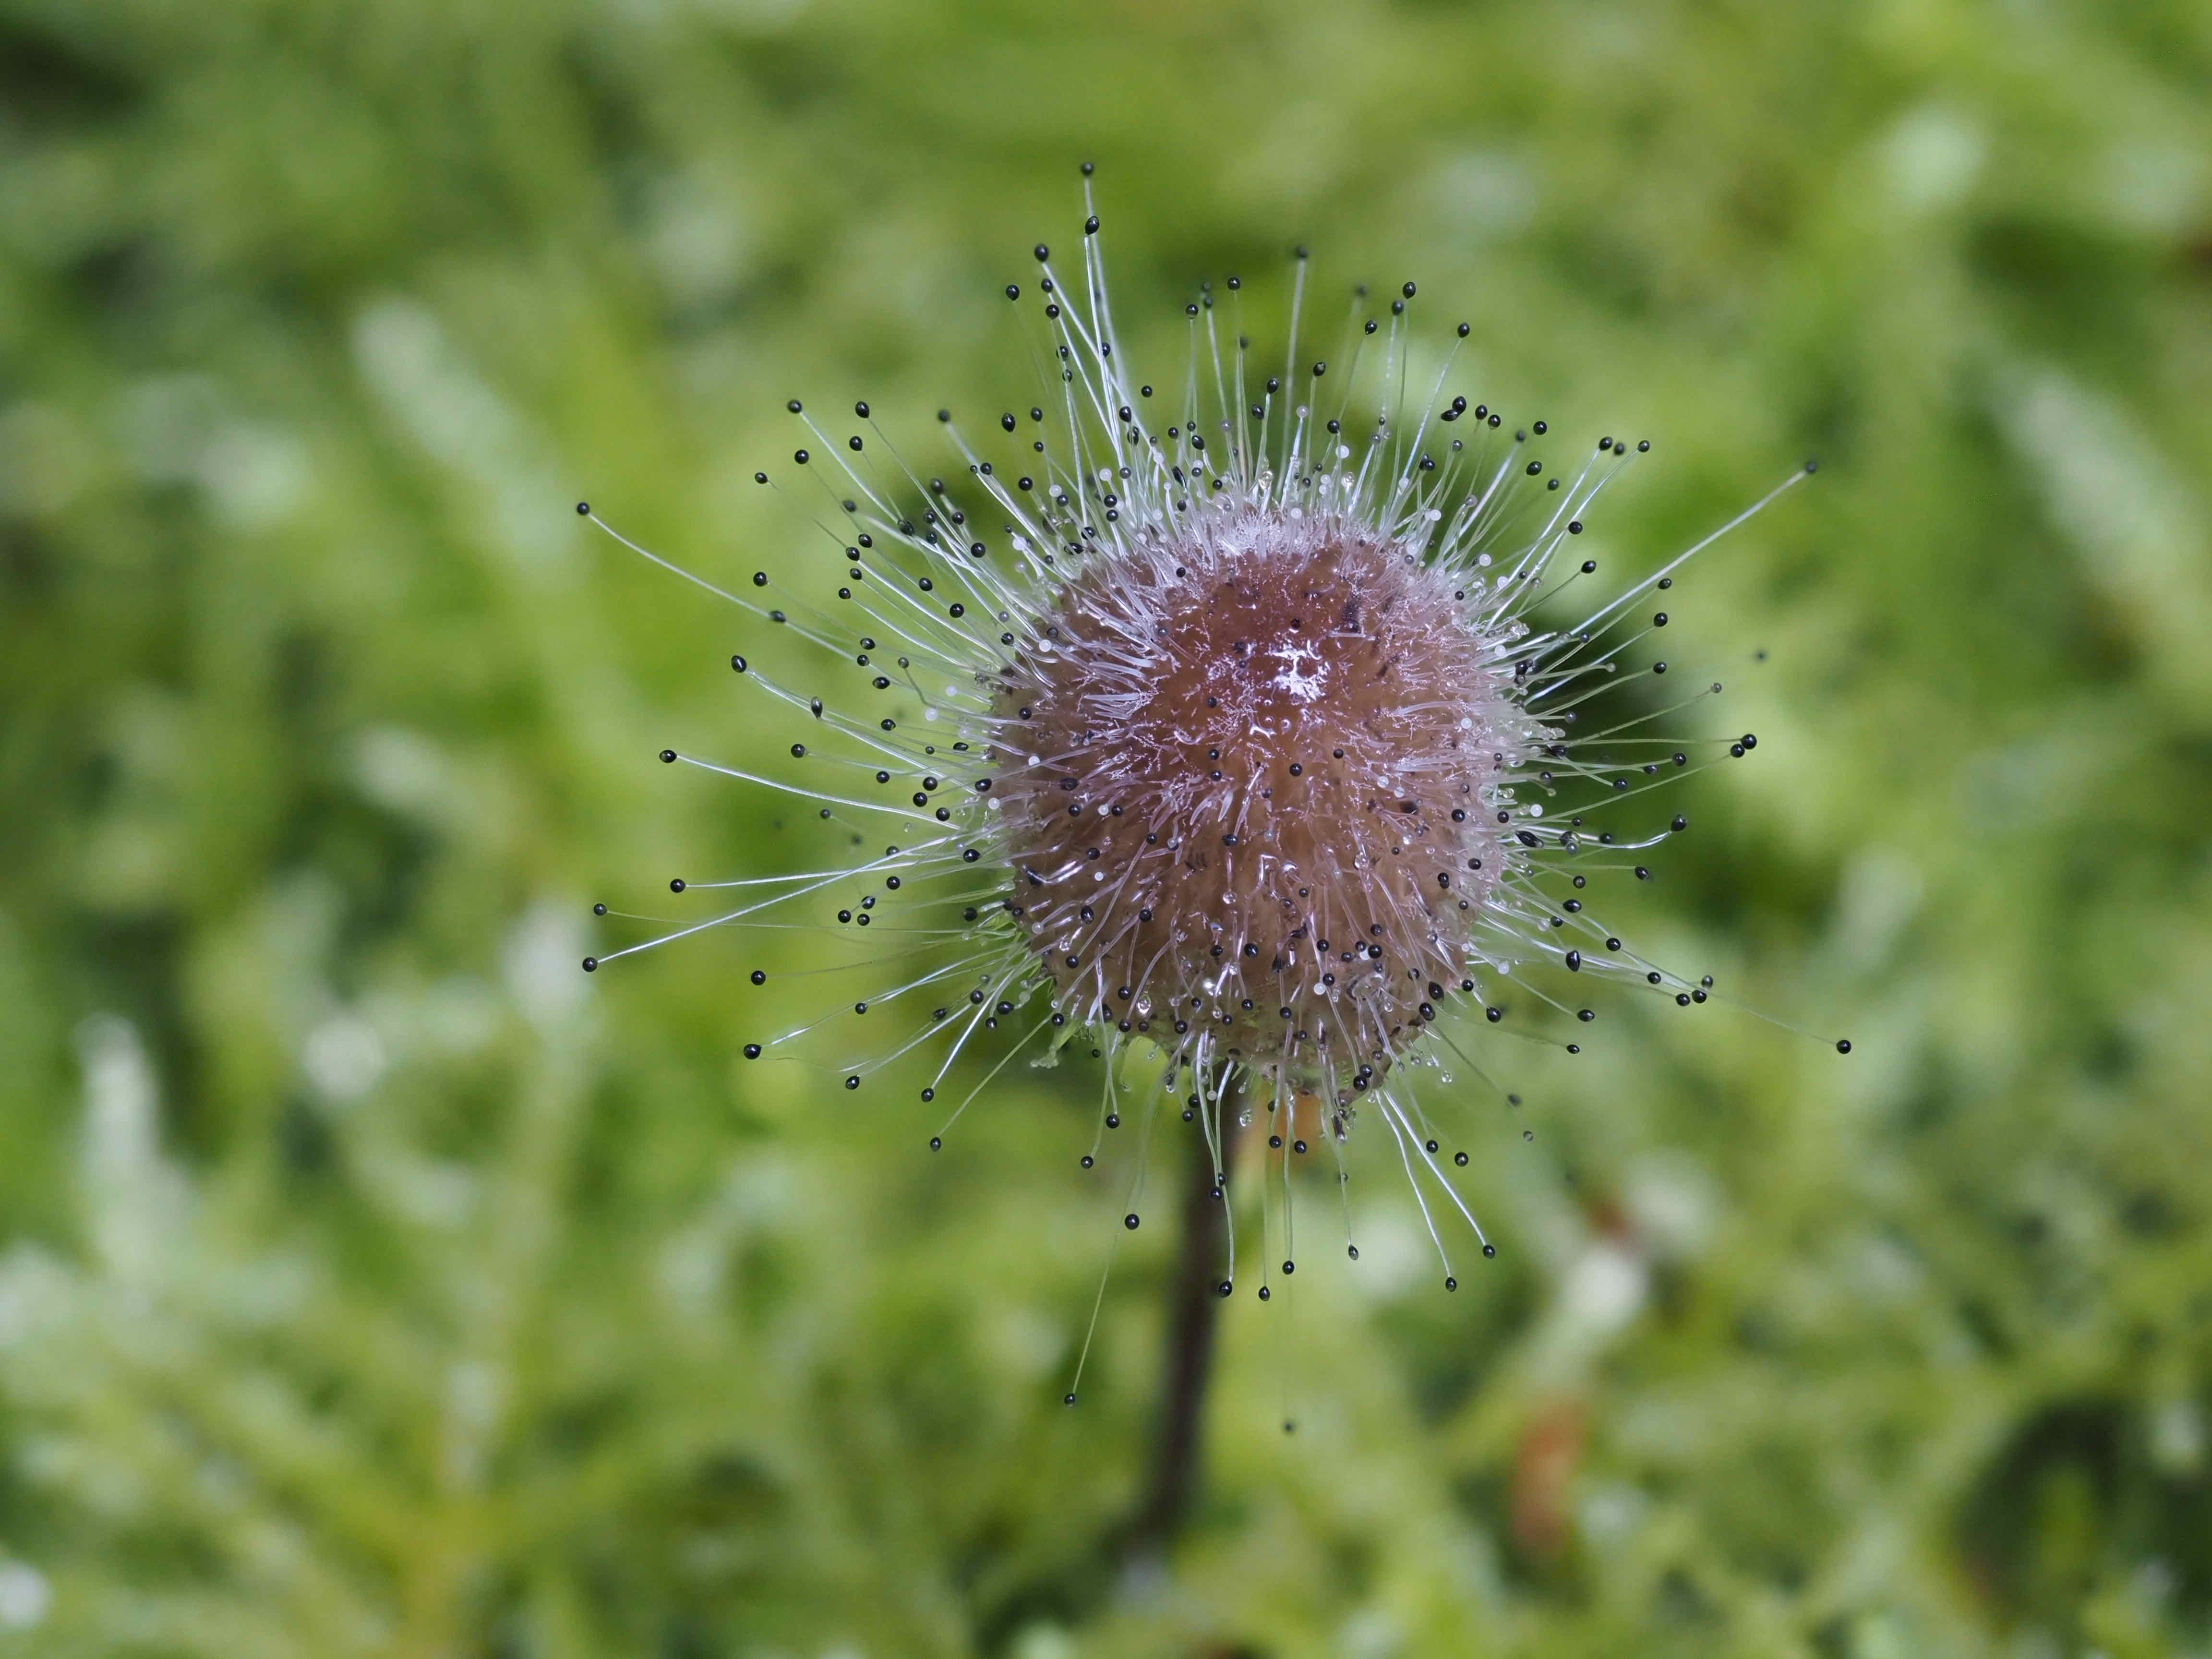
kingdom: Fungi
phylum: Mucoromycota
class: Mucoromycetes
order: Mucorales
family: Phycomycetaceae
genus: Spinellus
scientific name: Spinellus fusiger
